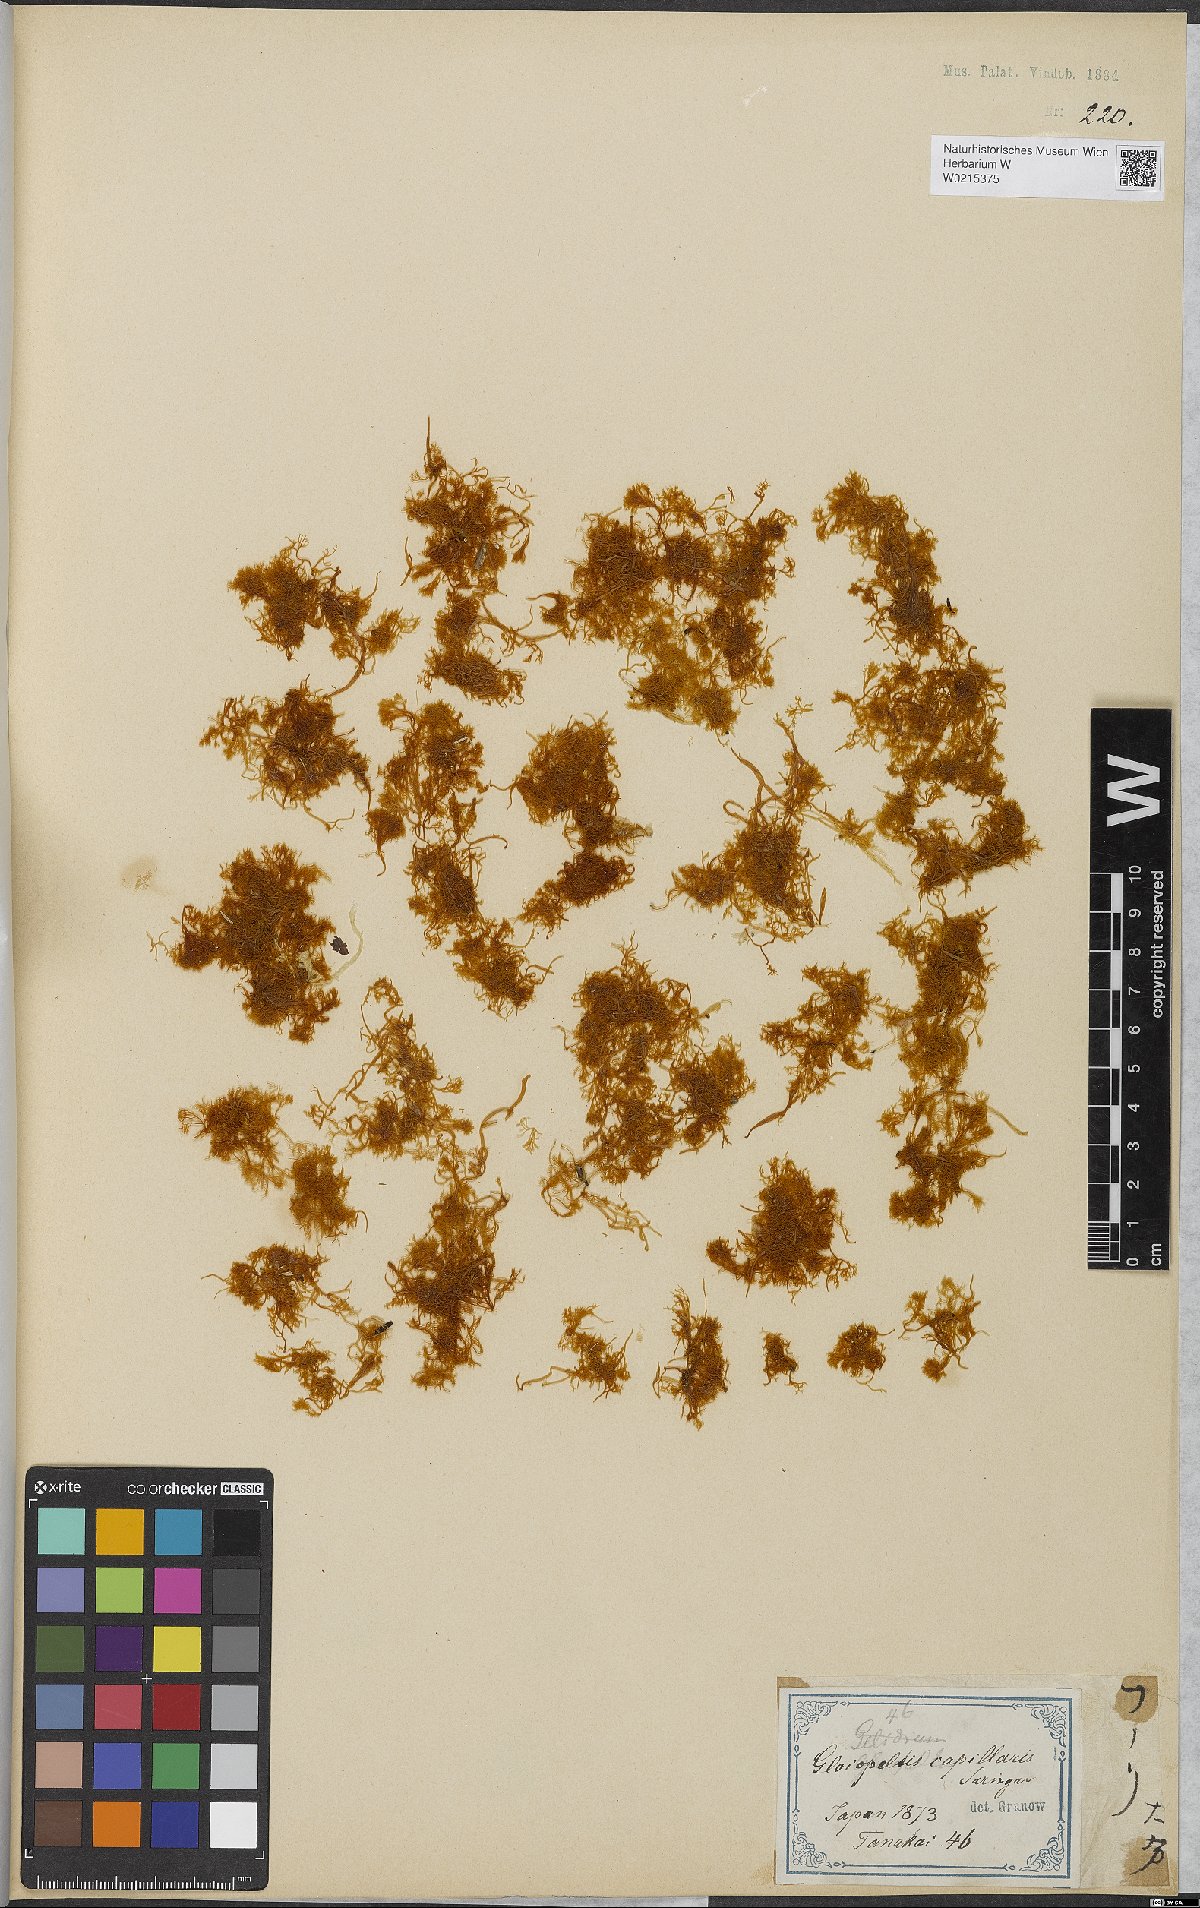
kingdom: Plantae
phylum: Rhodophyta
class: Florideophyceae
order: Gigartinales
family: Endocladiaceae
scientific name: Endocladiaceae
